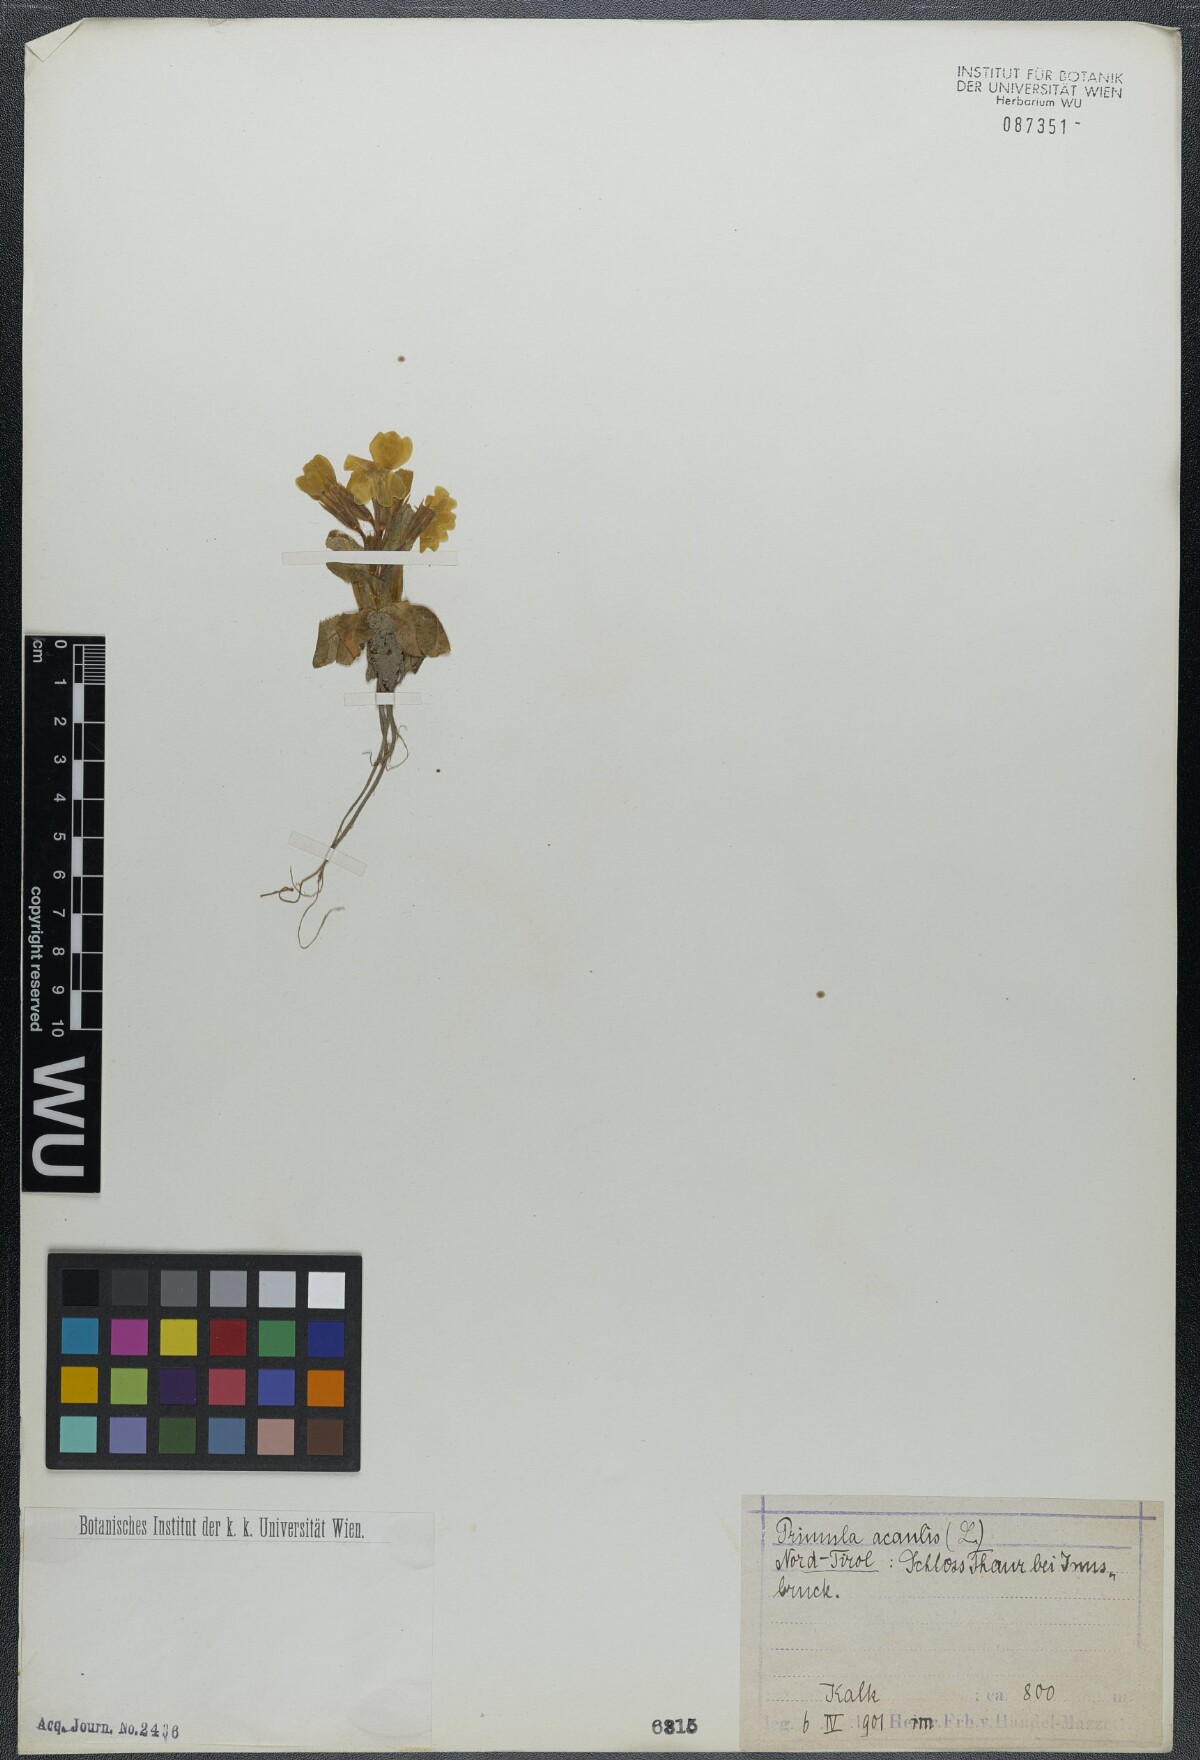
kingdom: Plantae
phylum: Tracheophyta
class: Magnoliopsida
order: Ericales
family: Primulaceae
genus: Primula
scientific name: Primula vulgaris
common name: Primrose
